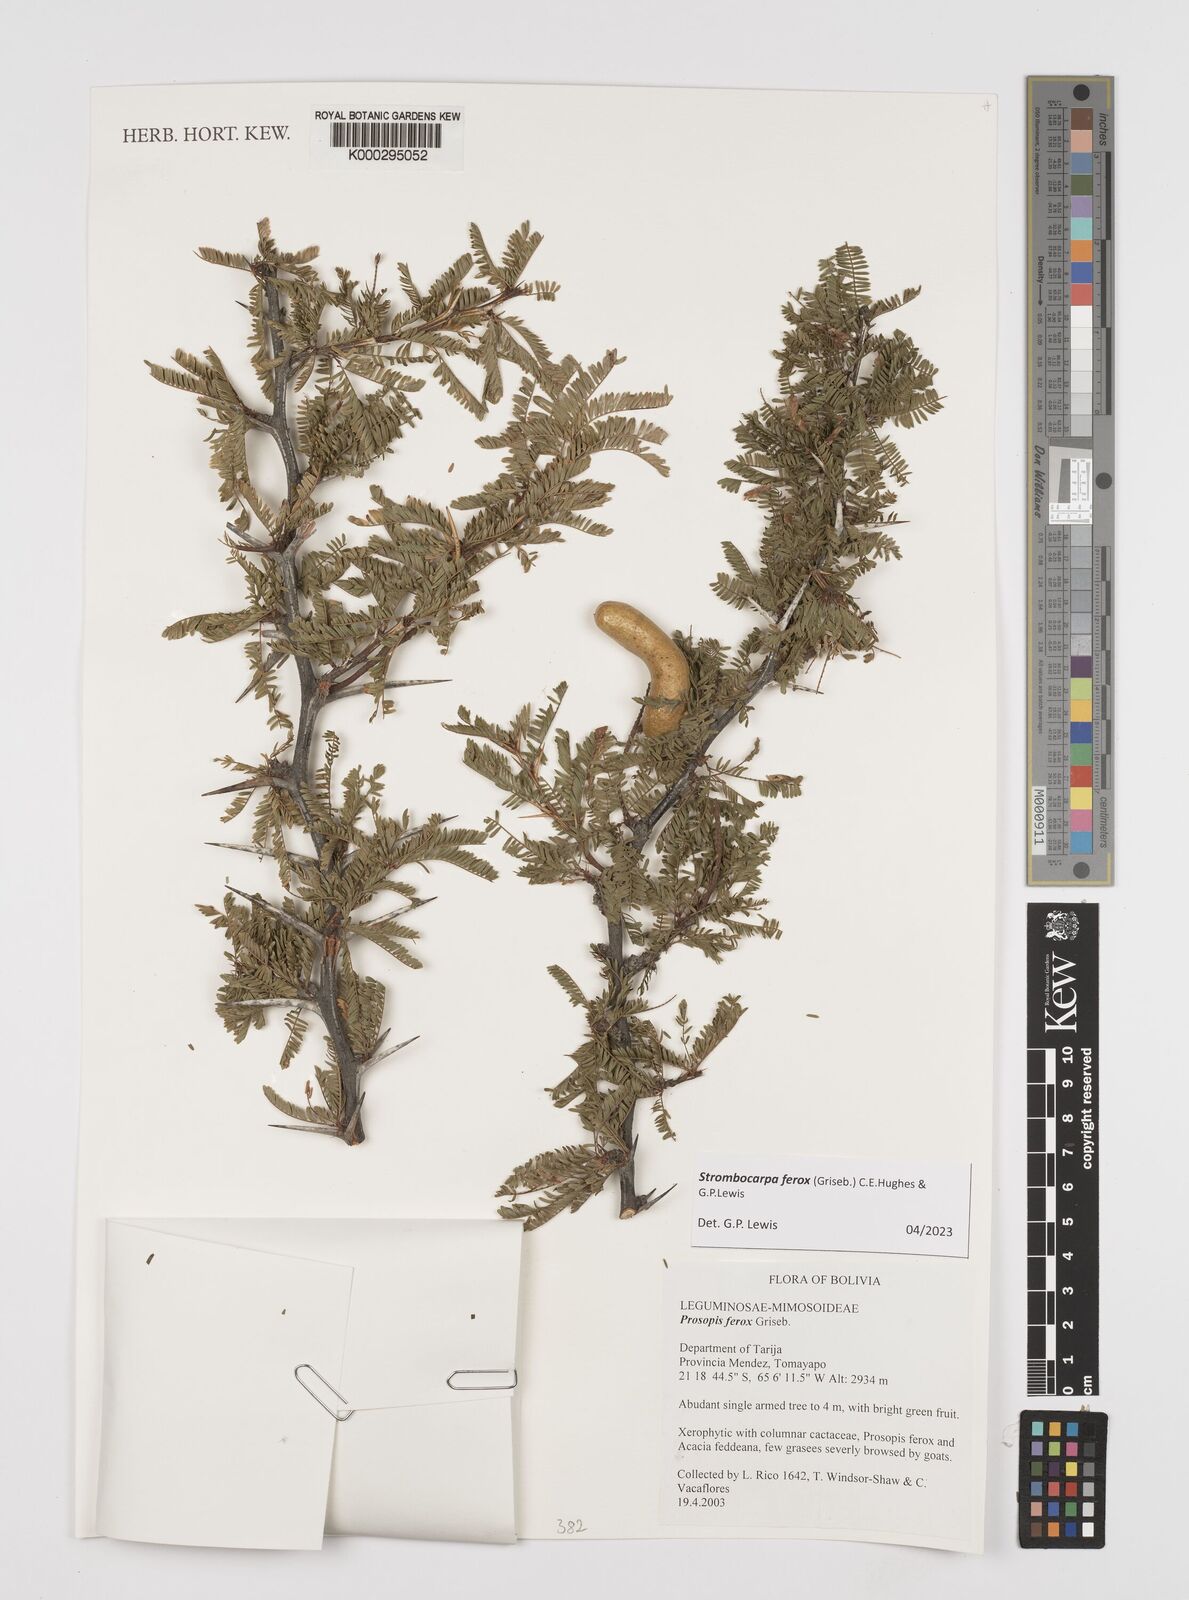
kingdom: Plantae
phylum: Tracheophyta
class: Magnoliopsida
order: Fabales
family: Fabaceae
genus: Prosopis
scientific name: Prosopis ferox
